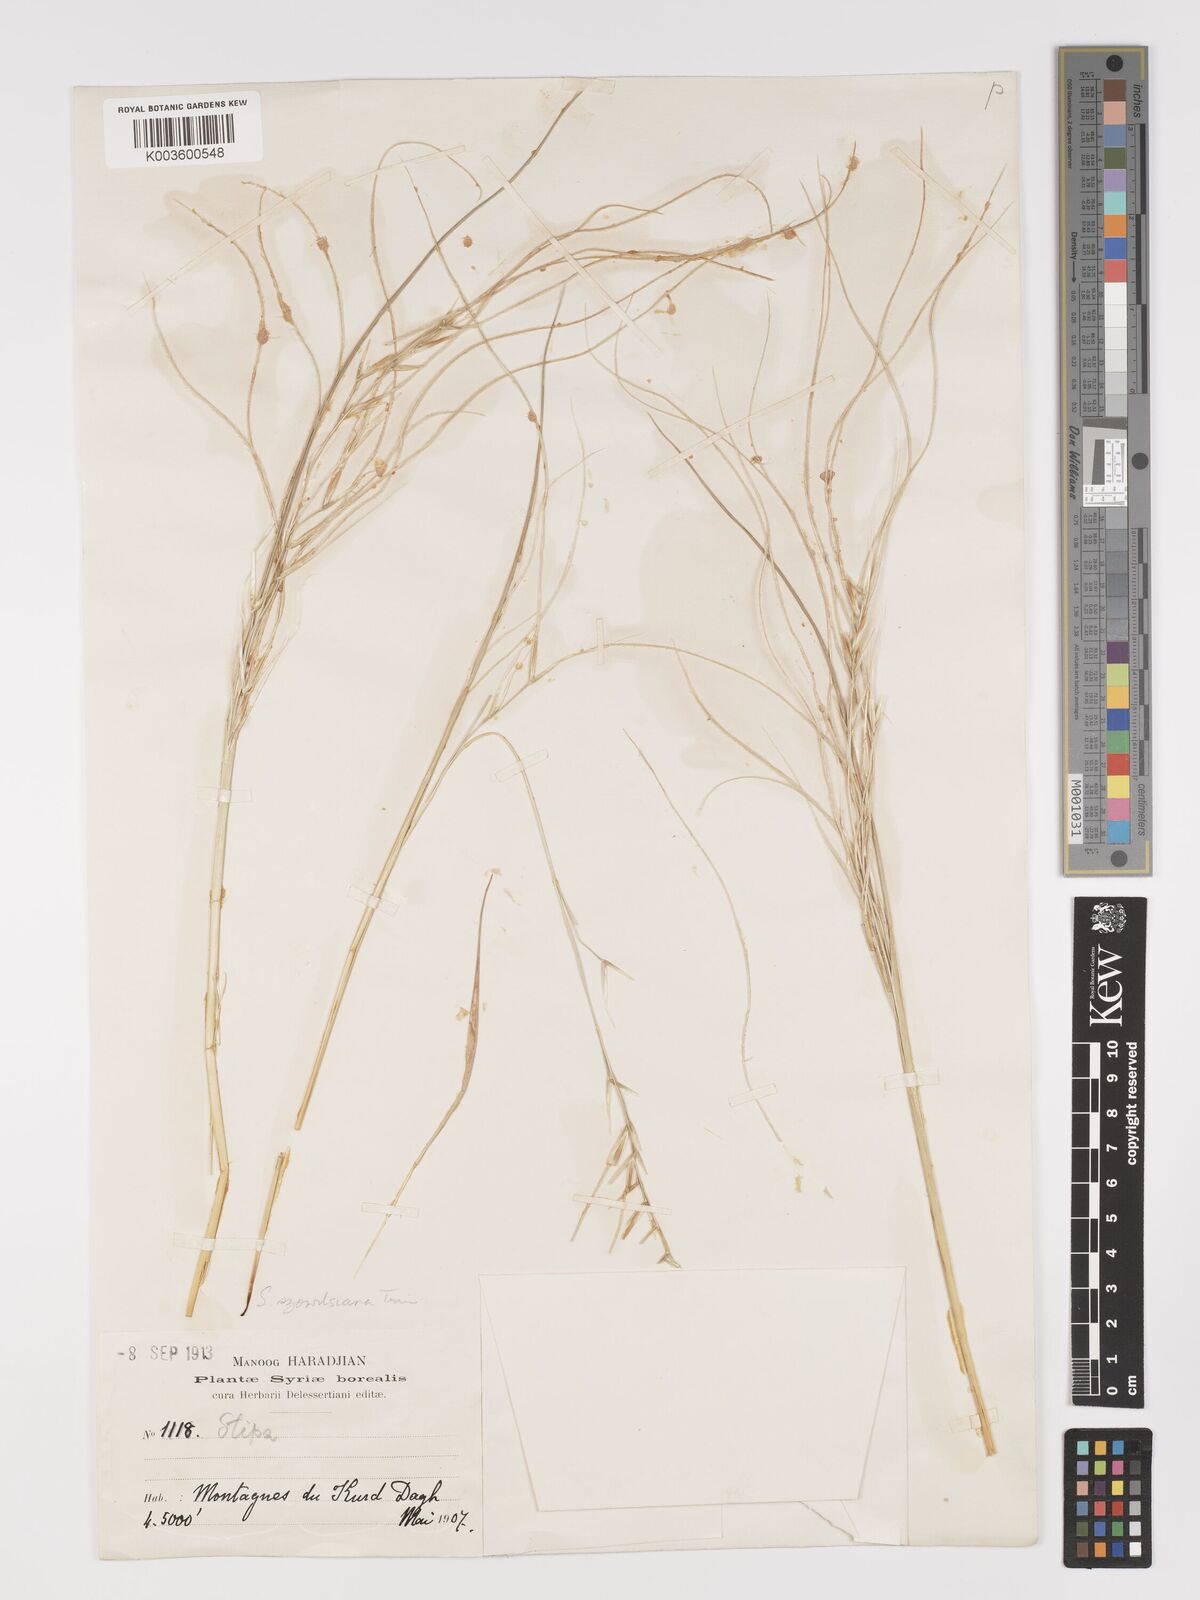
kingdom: Plantae
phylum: Tracheophyta
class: Liliopsida
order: Poales
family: Poaceae
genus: Stipa
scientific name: Stipa barbata
